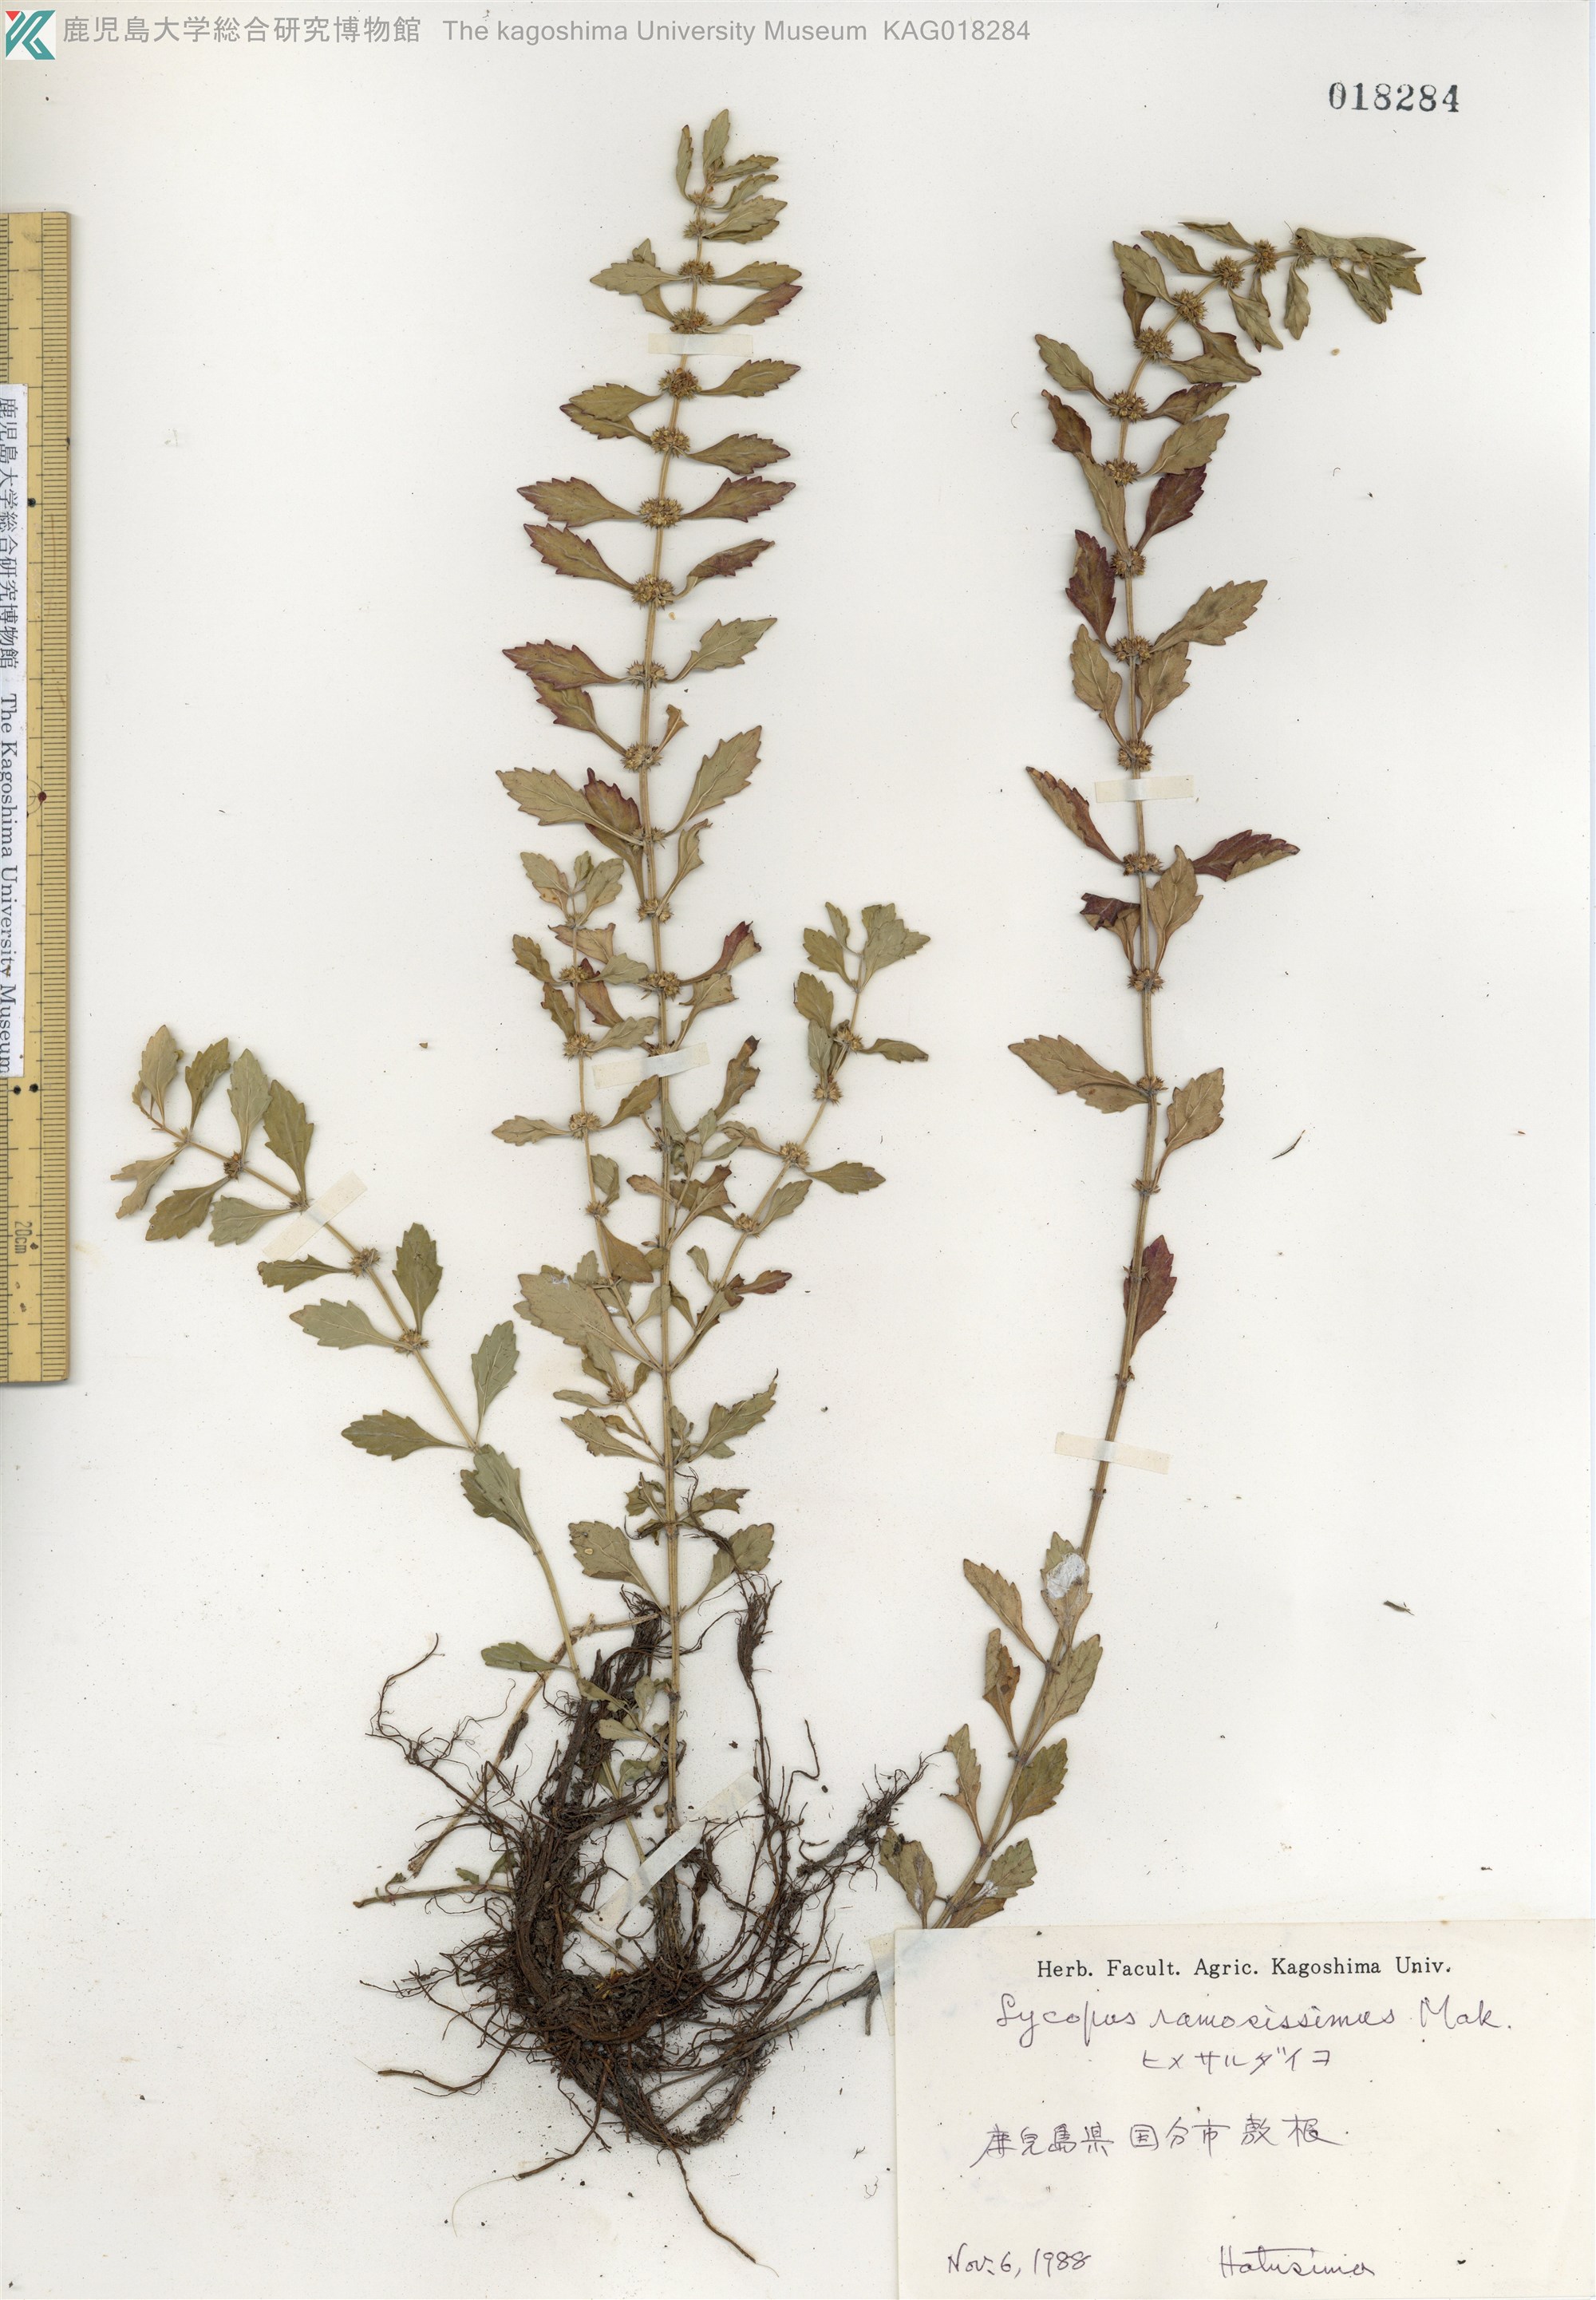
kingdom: Plantae
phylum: Tracheophyta
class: Magnoliopsida
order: Lamiales
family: Lamiaceae
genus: Lycopus
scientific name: Lycopus cavaleriei
